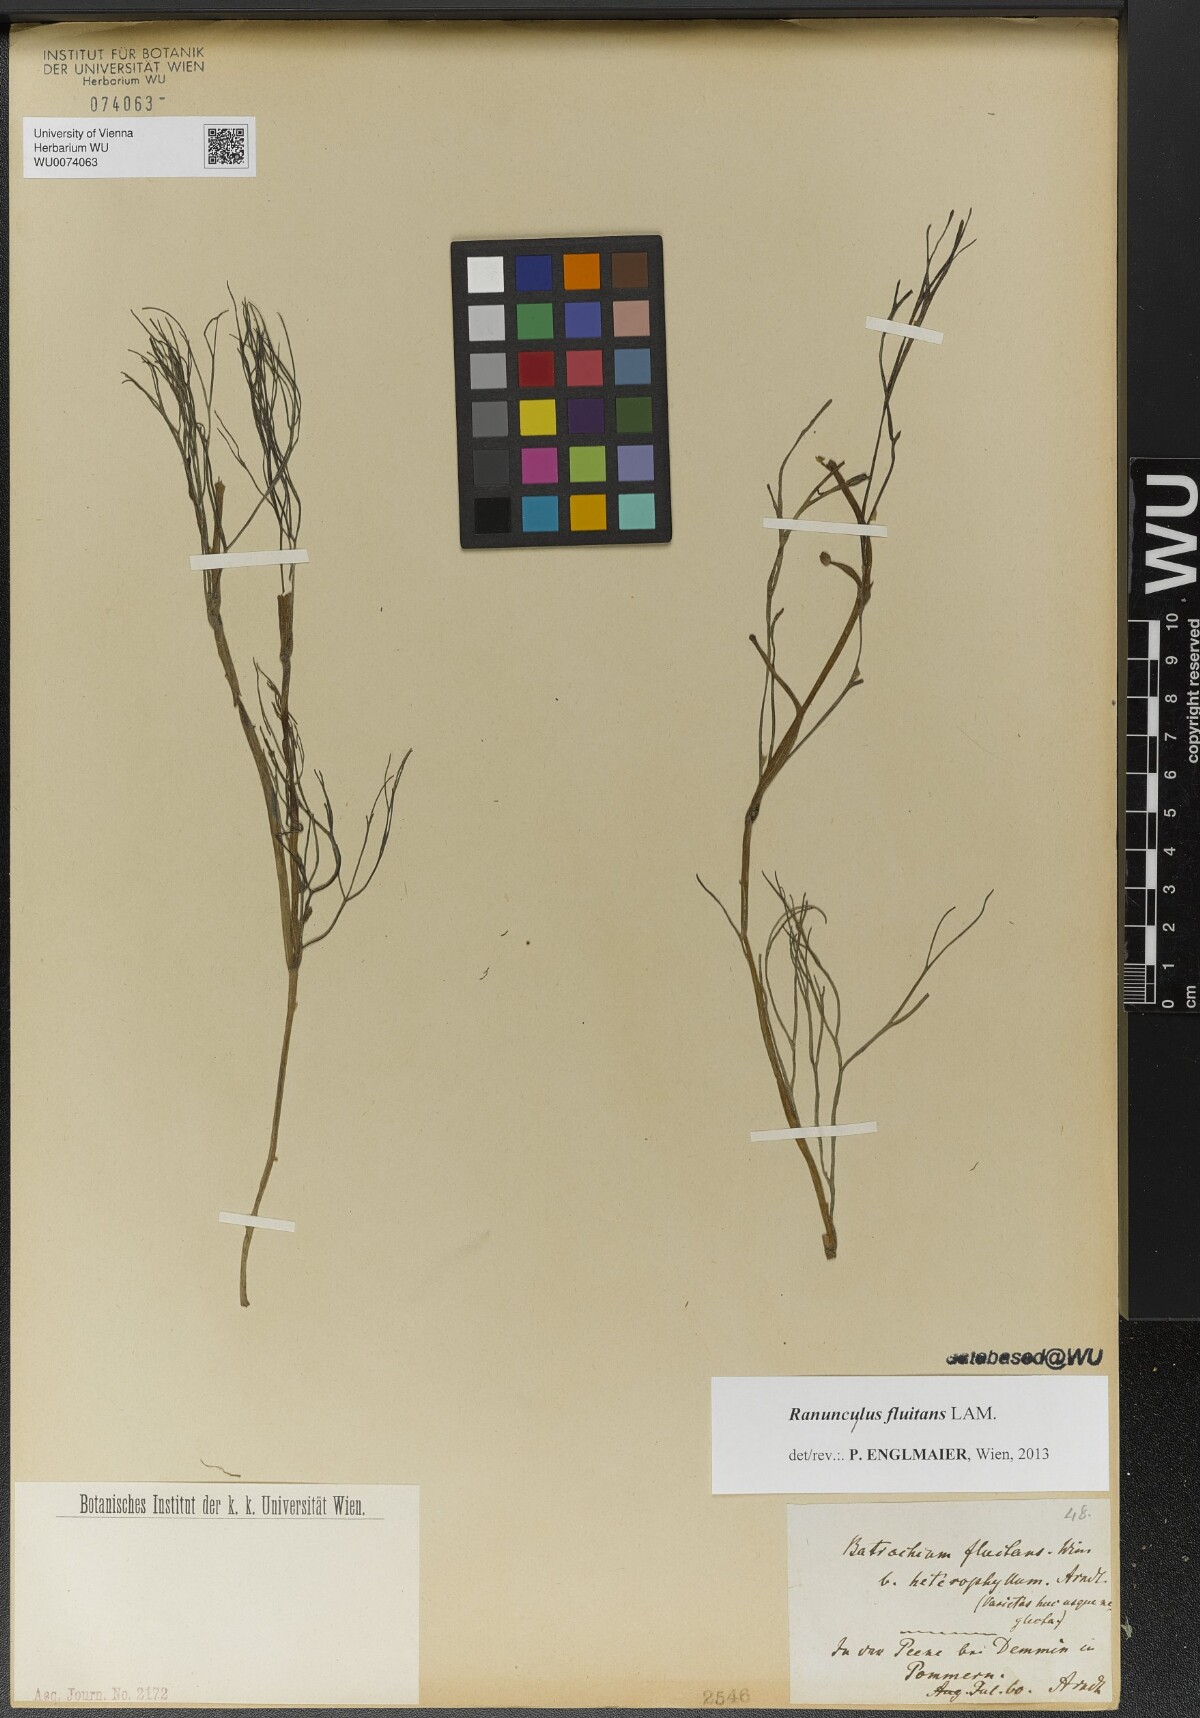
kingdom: Plantae
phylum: Tracheophyta
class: Magnoliopsida
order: Ranunculales
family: Ranunculaceae
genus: Ranunculus
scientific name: Ranunculus fluitans
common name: River water-crowfoot
